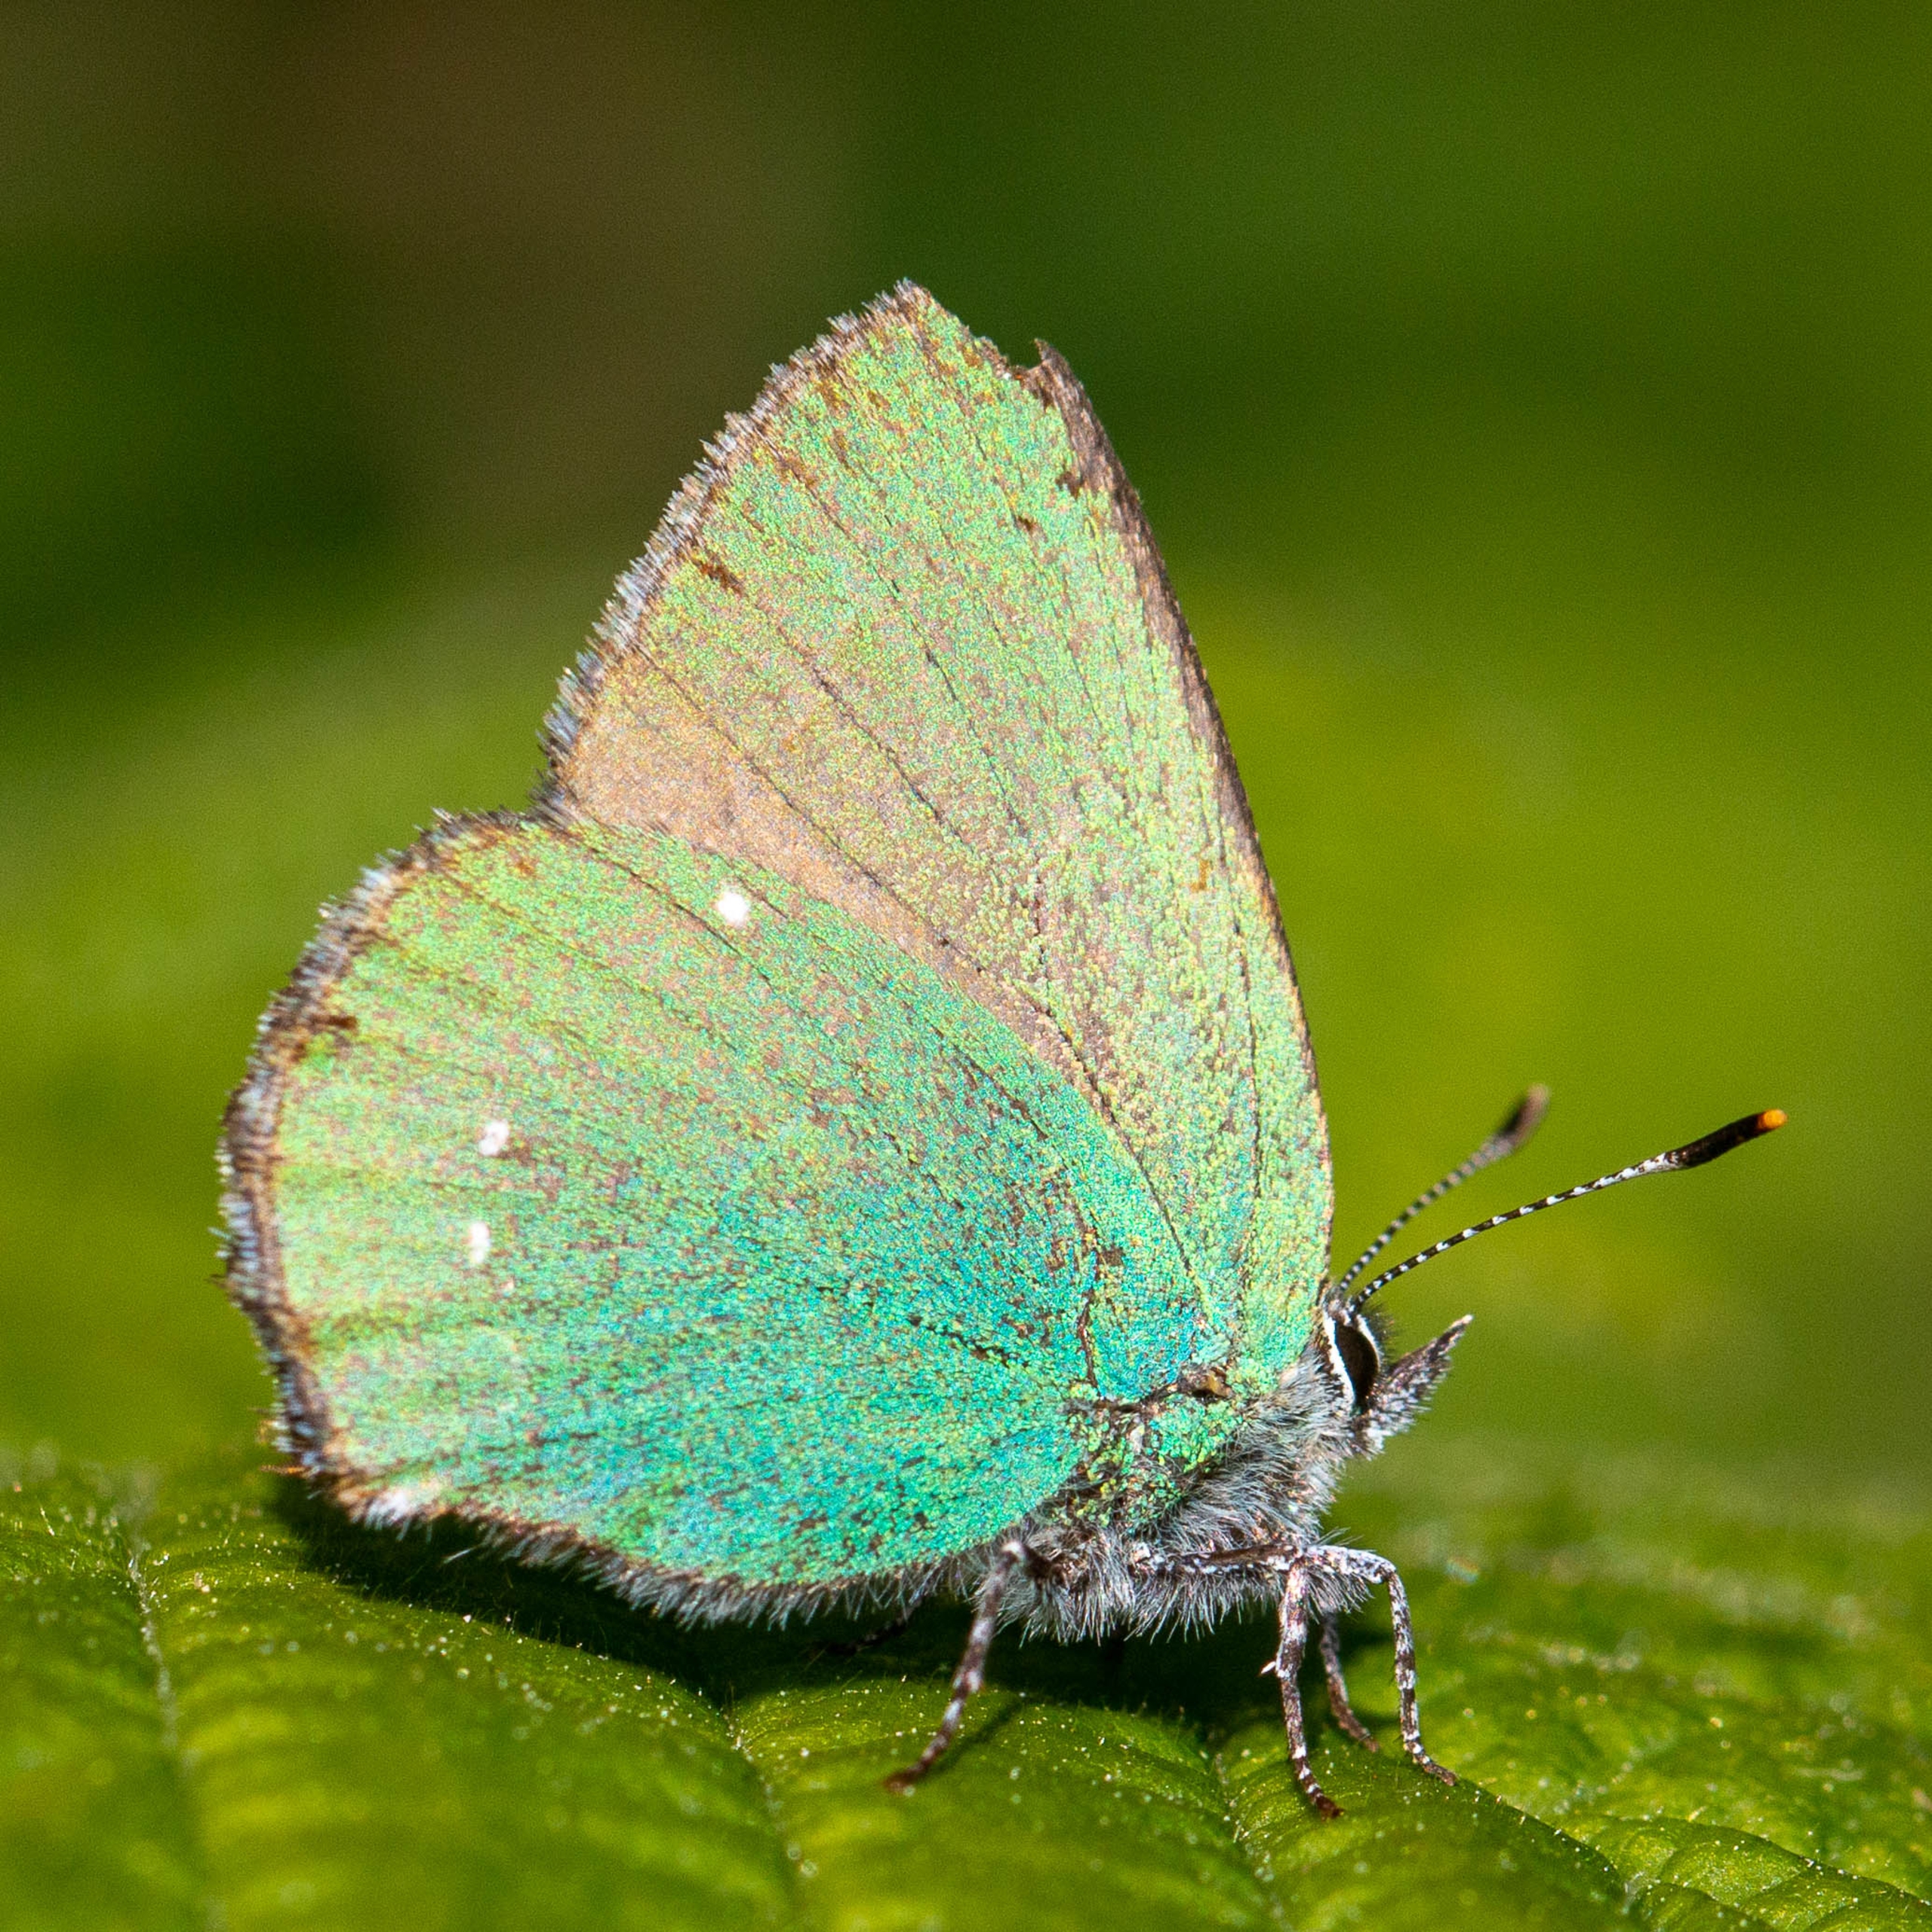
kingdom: Animalia
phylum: Arthropoda
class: Insecta
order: Lepidoptera
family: Lycaenidae
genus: Callophrys
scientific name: Callophrys rubi
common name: Grøn busksommerfugl
